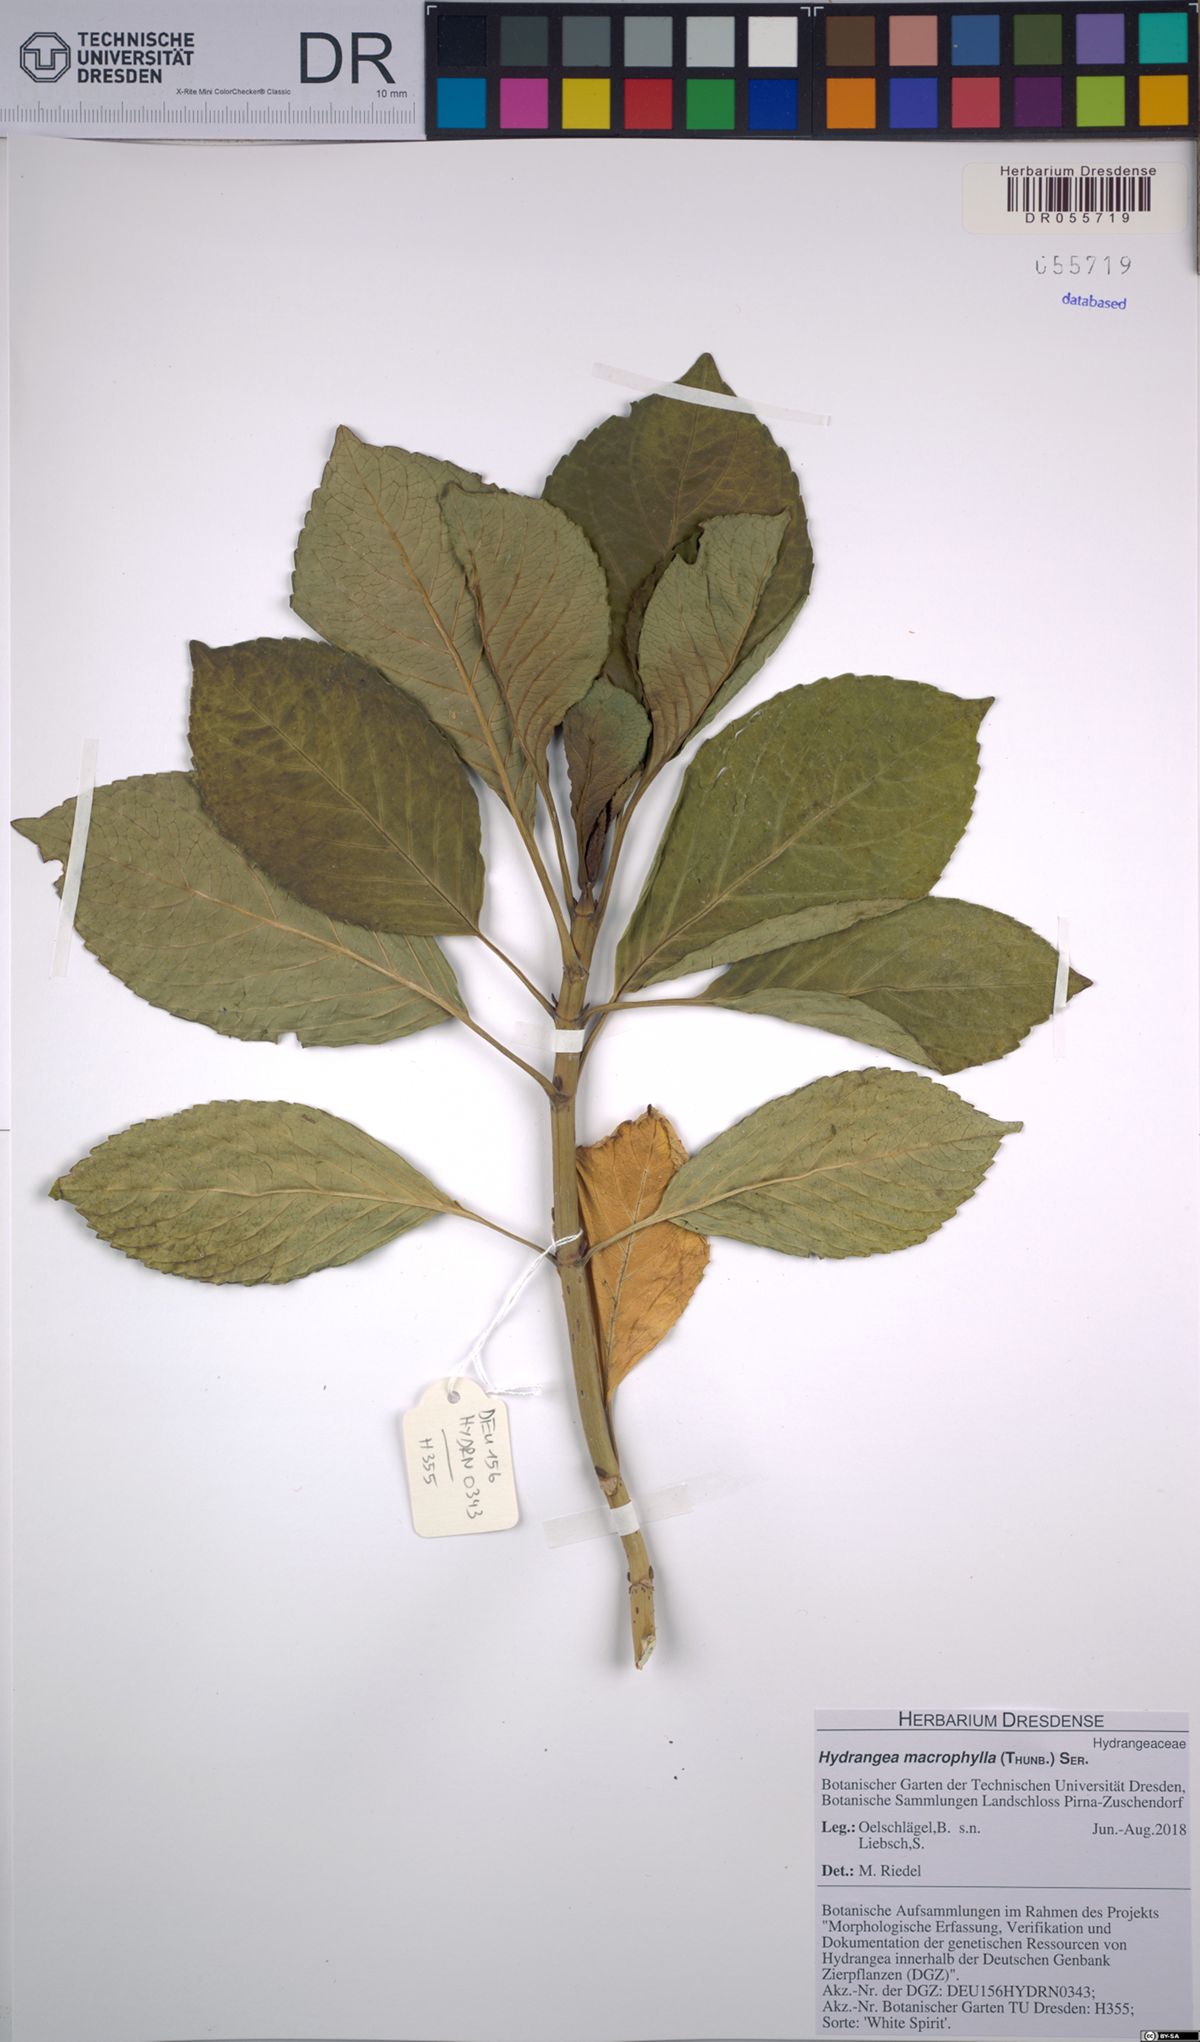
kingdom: Plantae
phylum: Tracheophyta
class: Magnoliopsida
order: Cornales
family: Hydrangeaceae
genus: Hydrangea
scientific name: Hydrangea macrophylla
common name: Hydrangea
